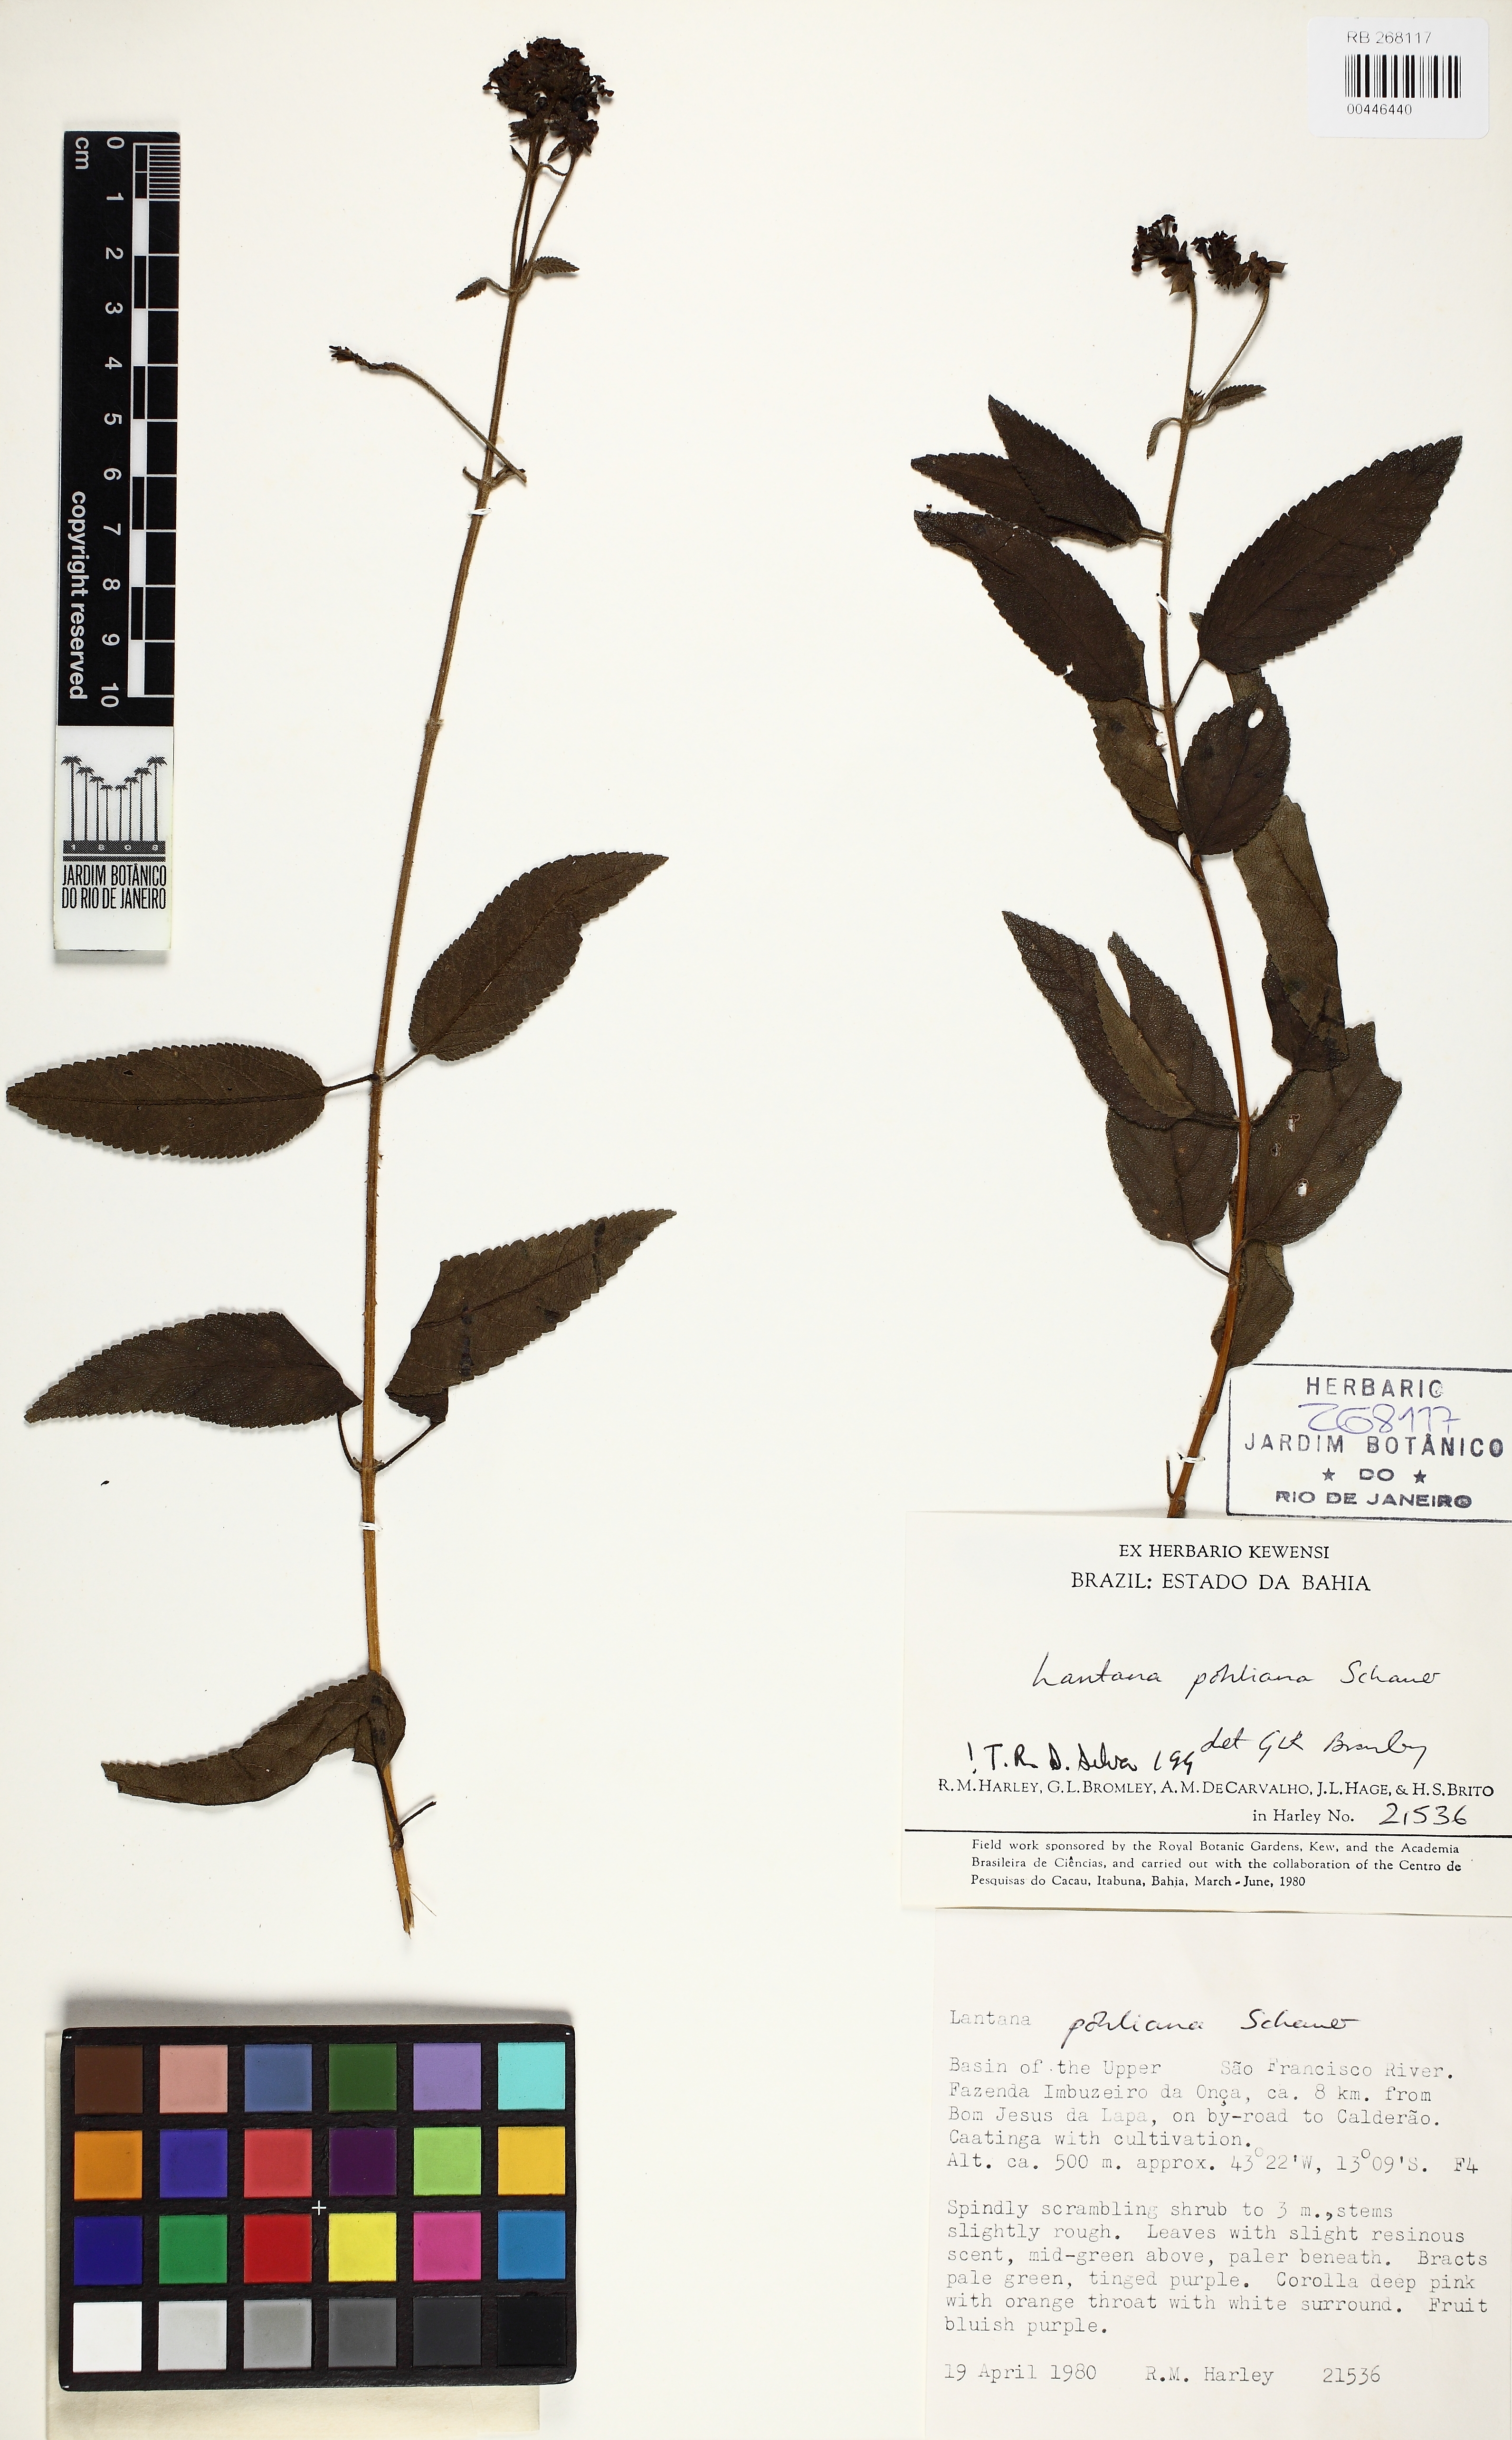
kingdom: Plantae
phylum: Tracheophyta
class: Magnoliopsida
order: Lamiales
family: Verbenaceae
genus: Lantana
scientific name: Lantana pohliana
